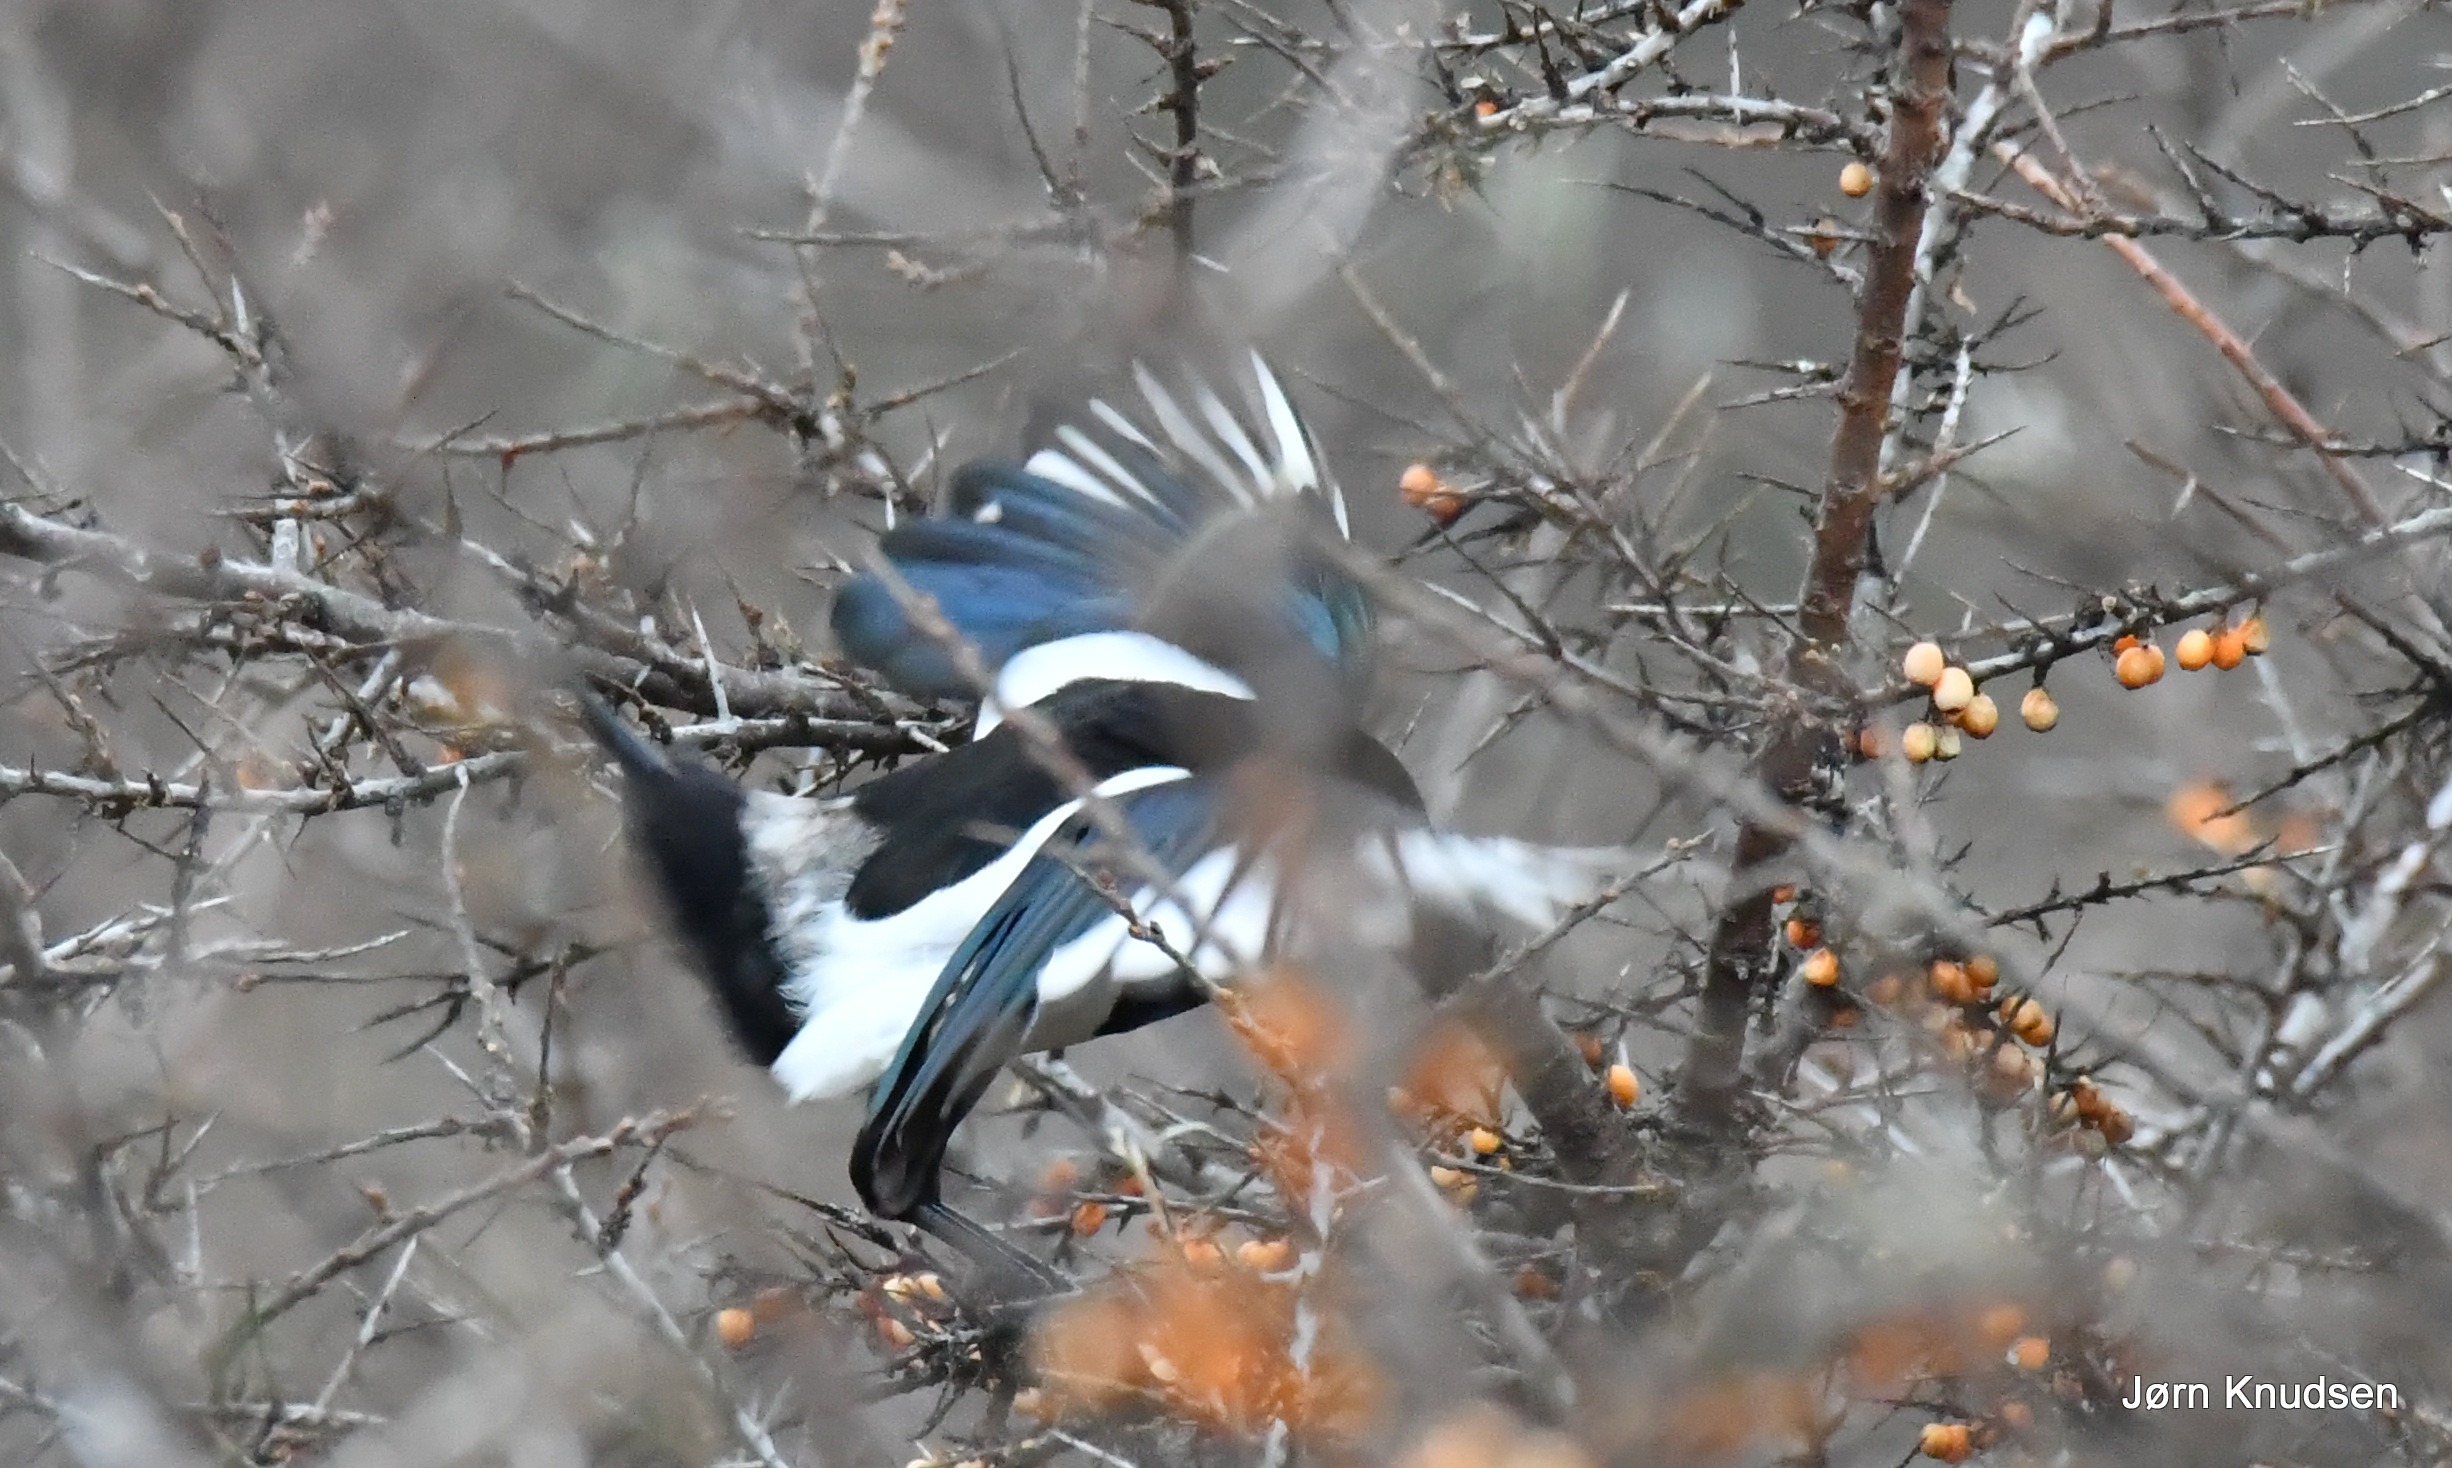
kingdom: Animalia
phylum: Chordata
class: Aves
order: Passeriformes
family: Corvidae
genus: Pica
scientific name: Pica pica
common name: Husskade
